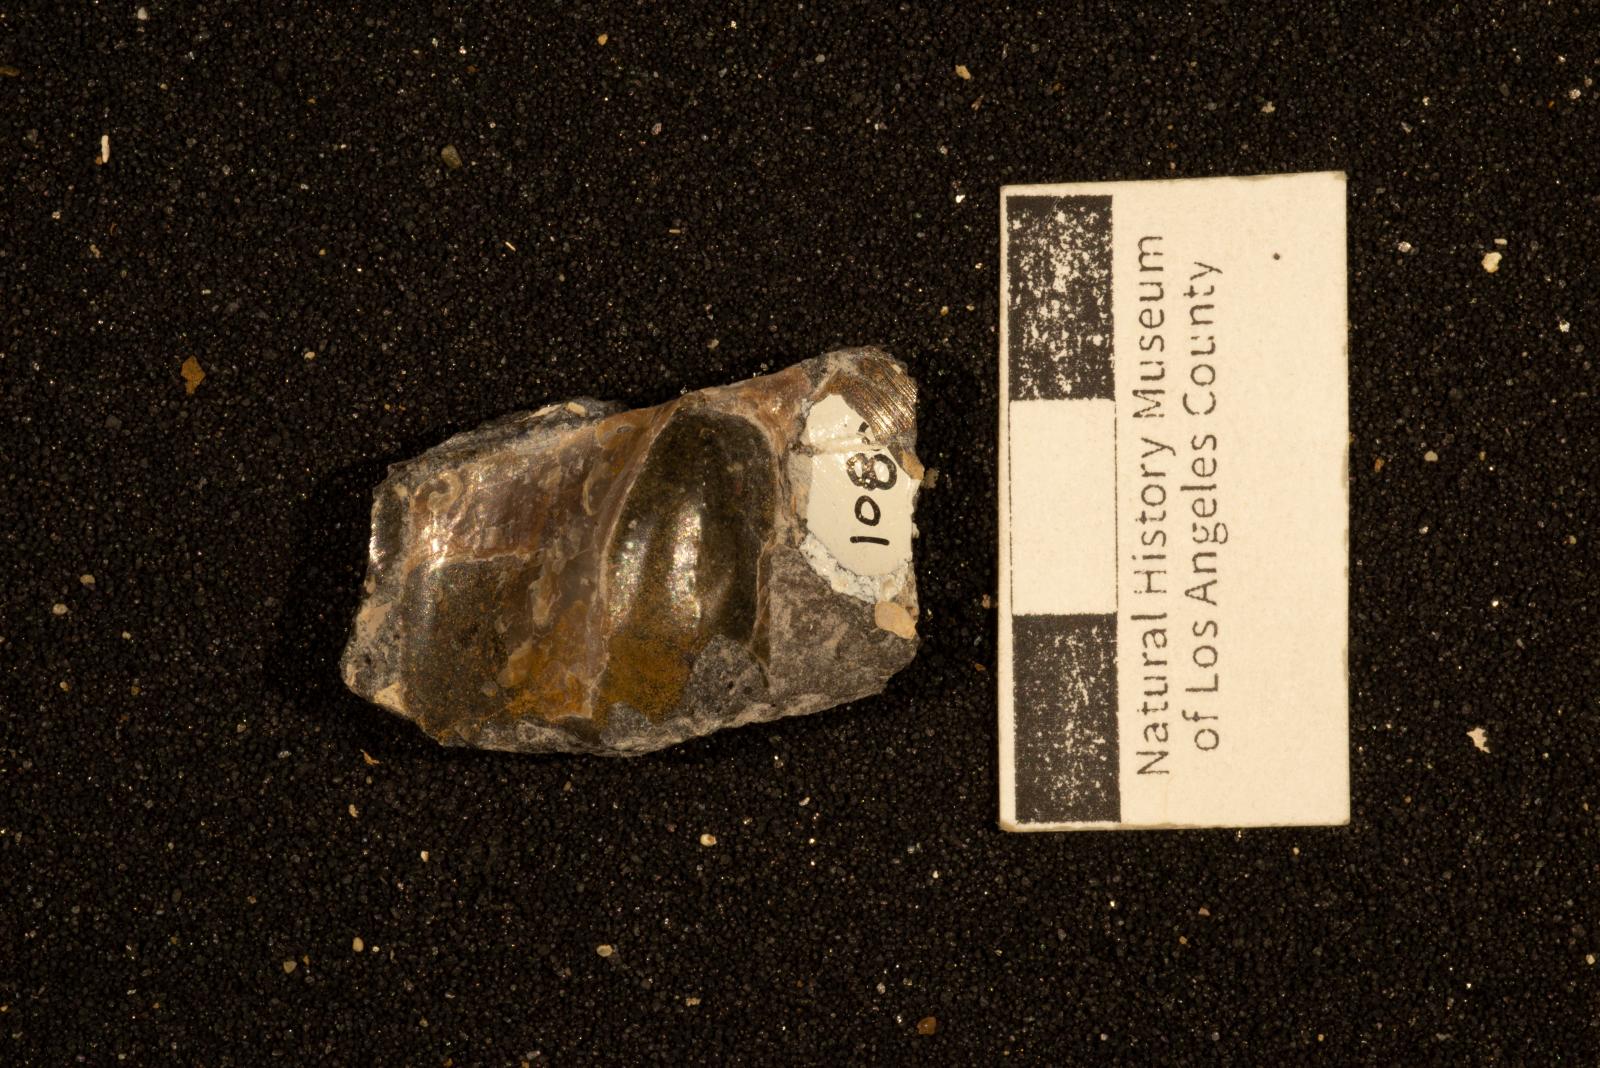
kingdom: Animalia
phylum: Mollusca
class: Bivalvia
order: Ostreida
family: Pteriidae
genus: Pteria
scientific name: Pteria pellucida
